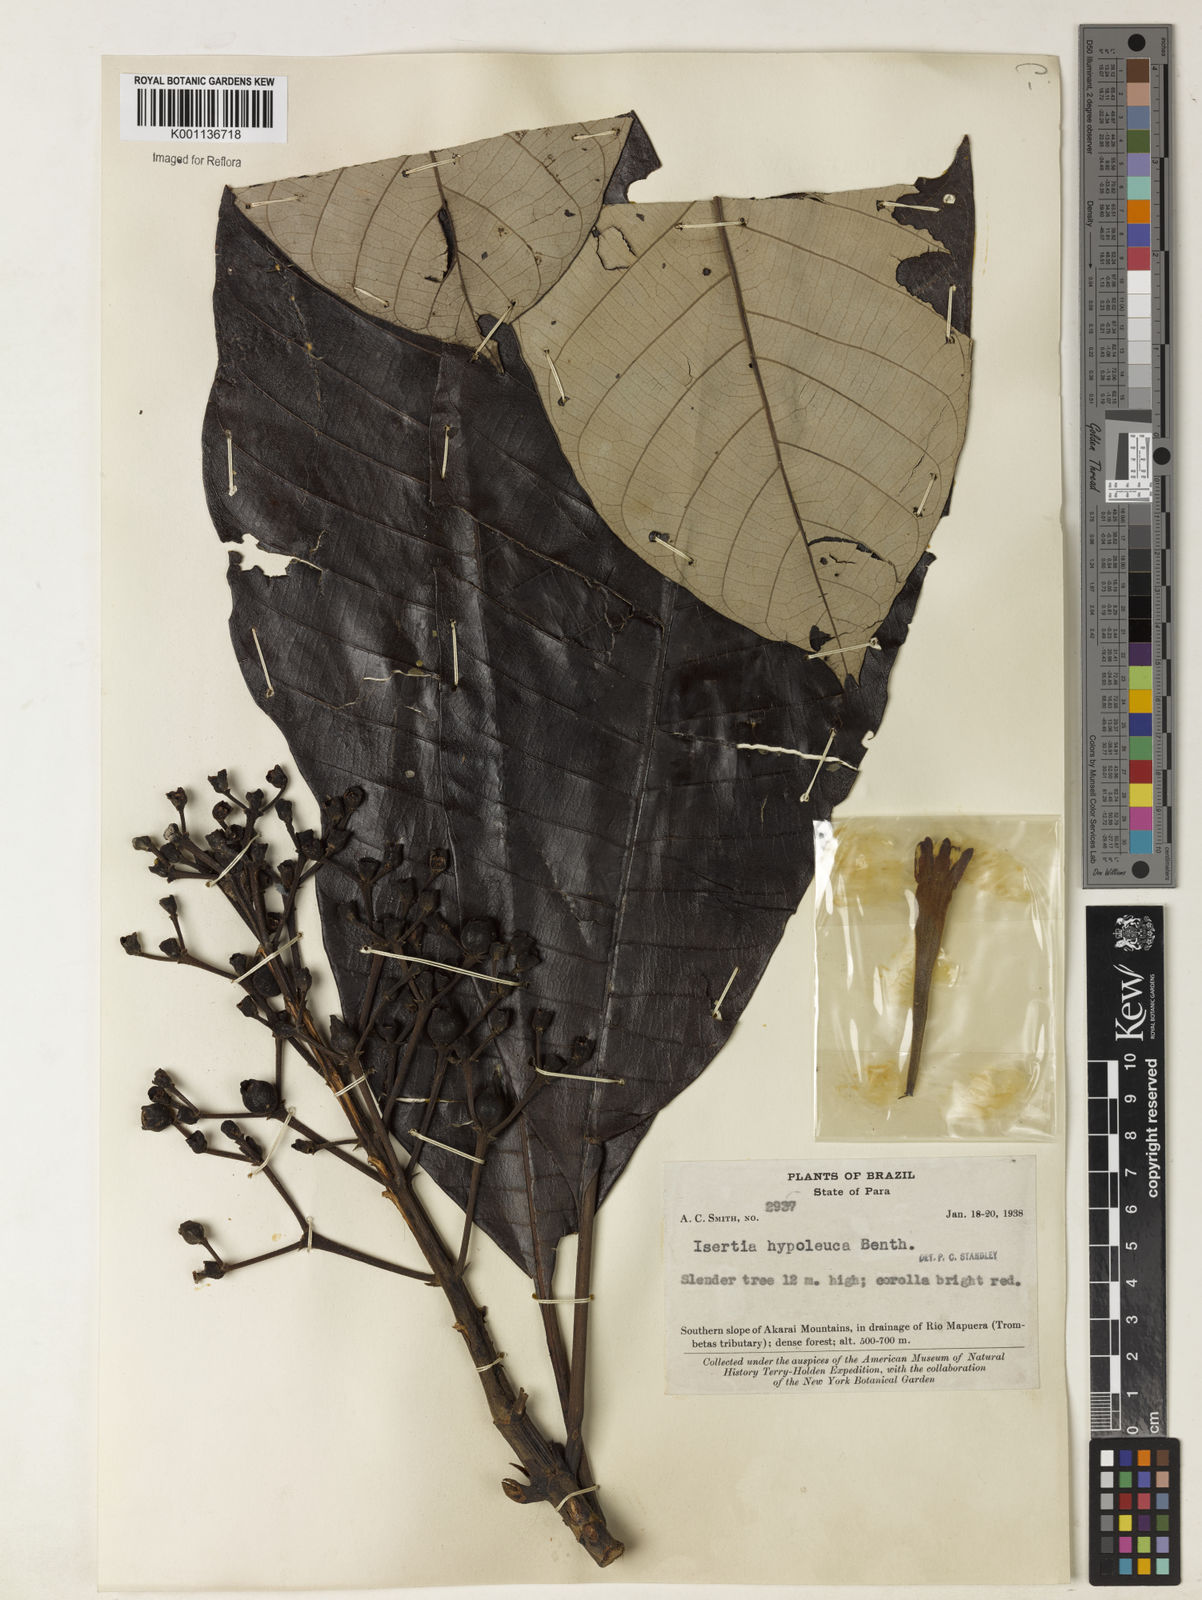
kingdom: Plantae
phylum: Tracheophyta
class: Magnoliopsida
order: Gentianales
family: Rubiaceae
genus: Isertia
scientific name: Isertia hypoleuca
